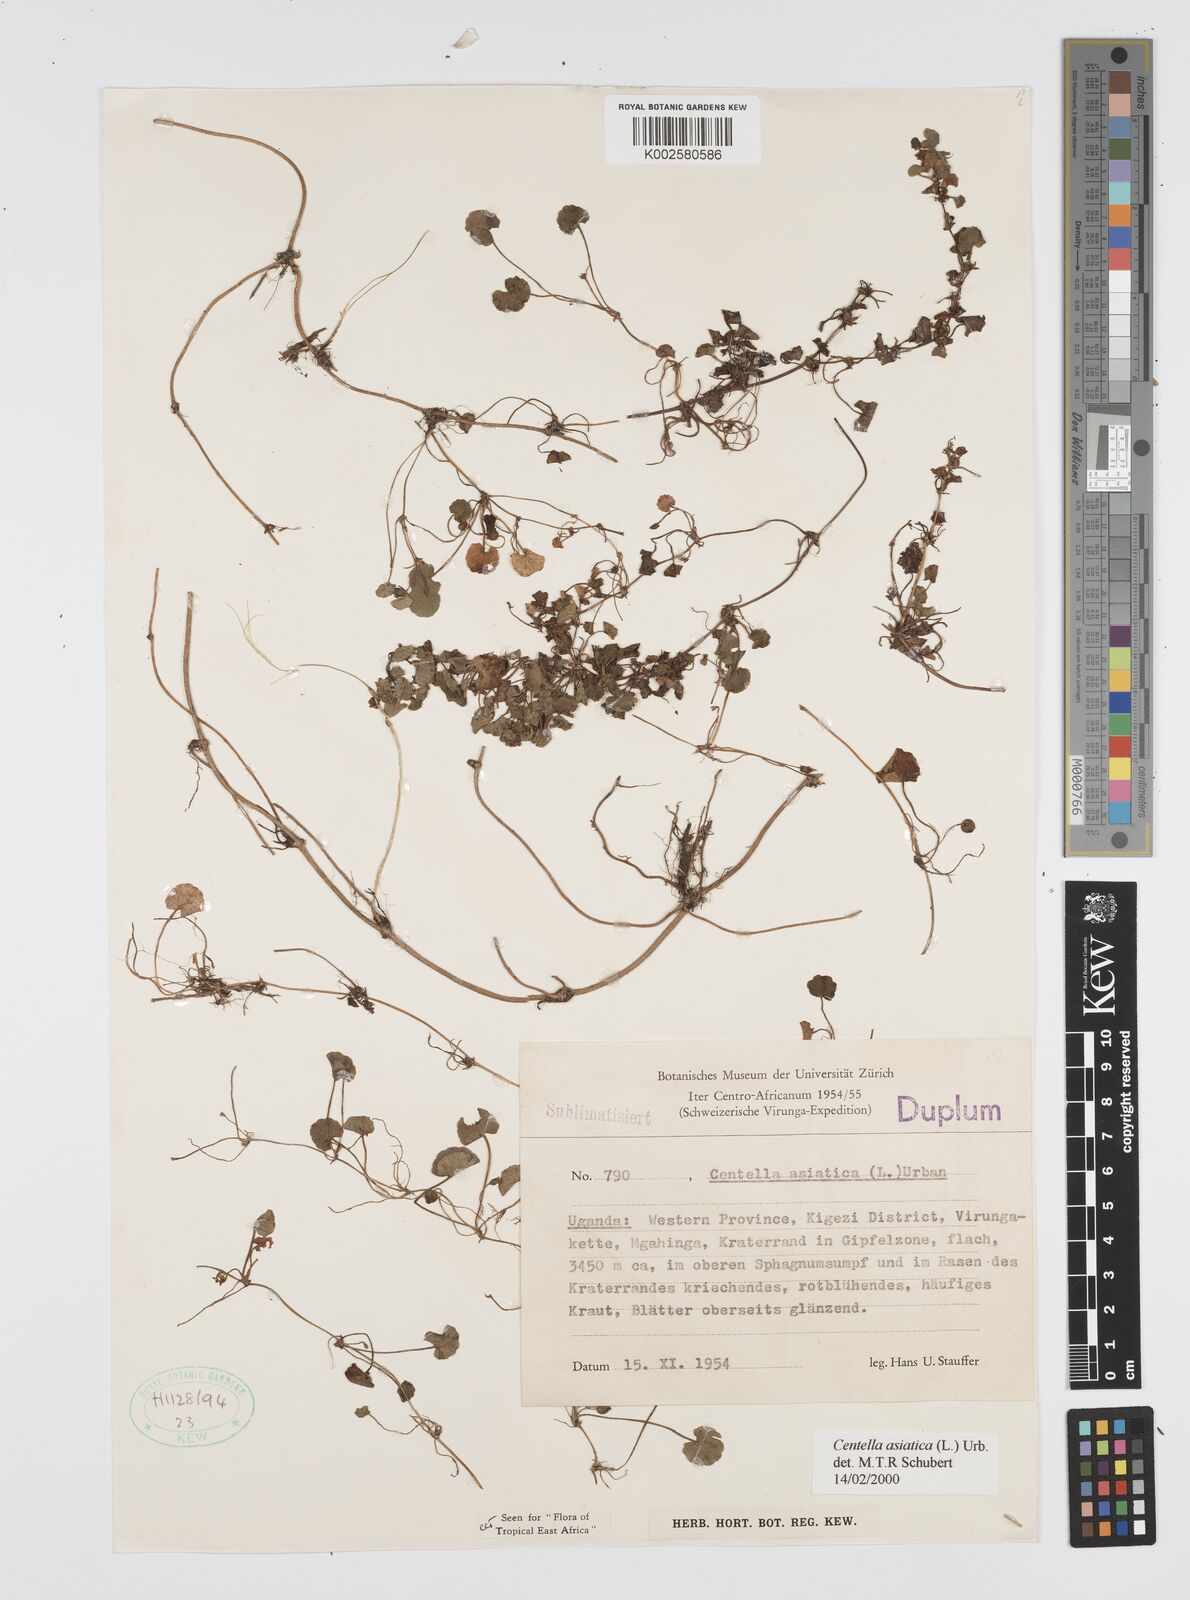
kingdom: Plantae
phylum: Tracheophyta
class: Magnoliopsida
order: Apiales
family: Apiaceae
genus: Centella
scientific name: Centella asiatica
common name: Spadeleaf
